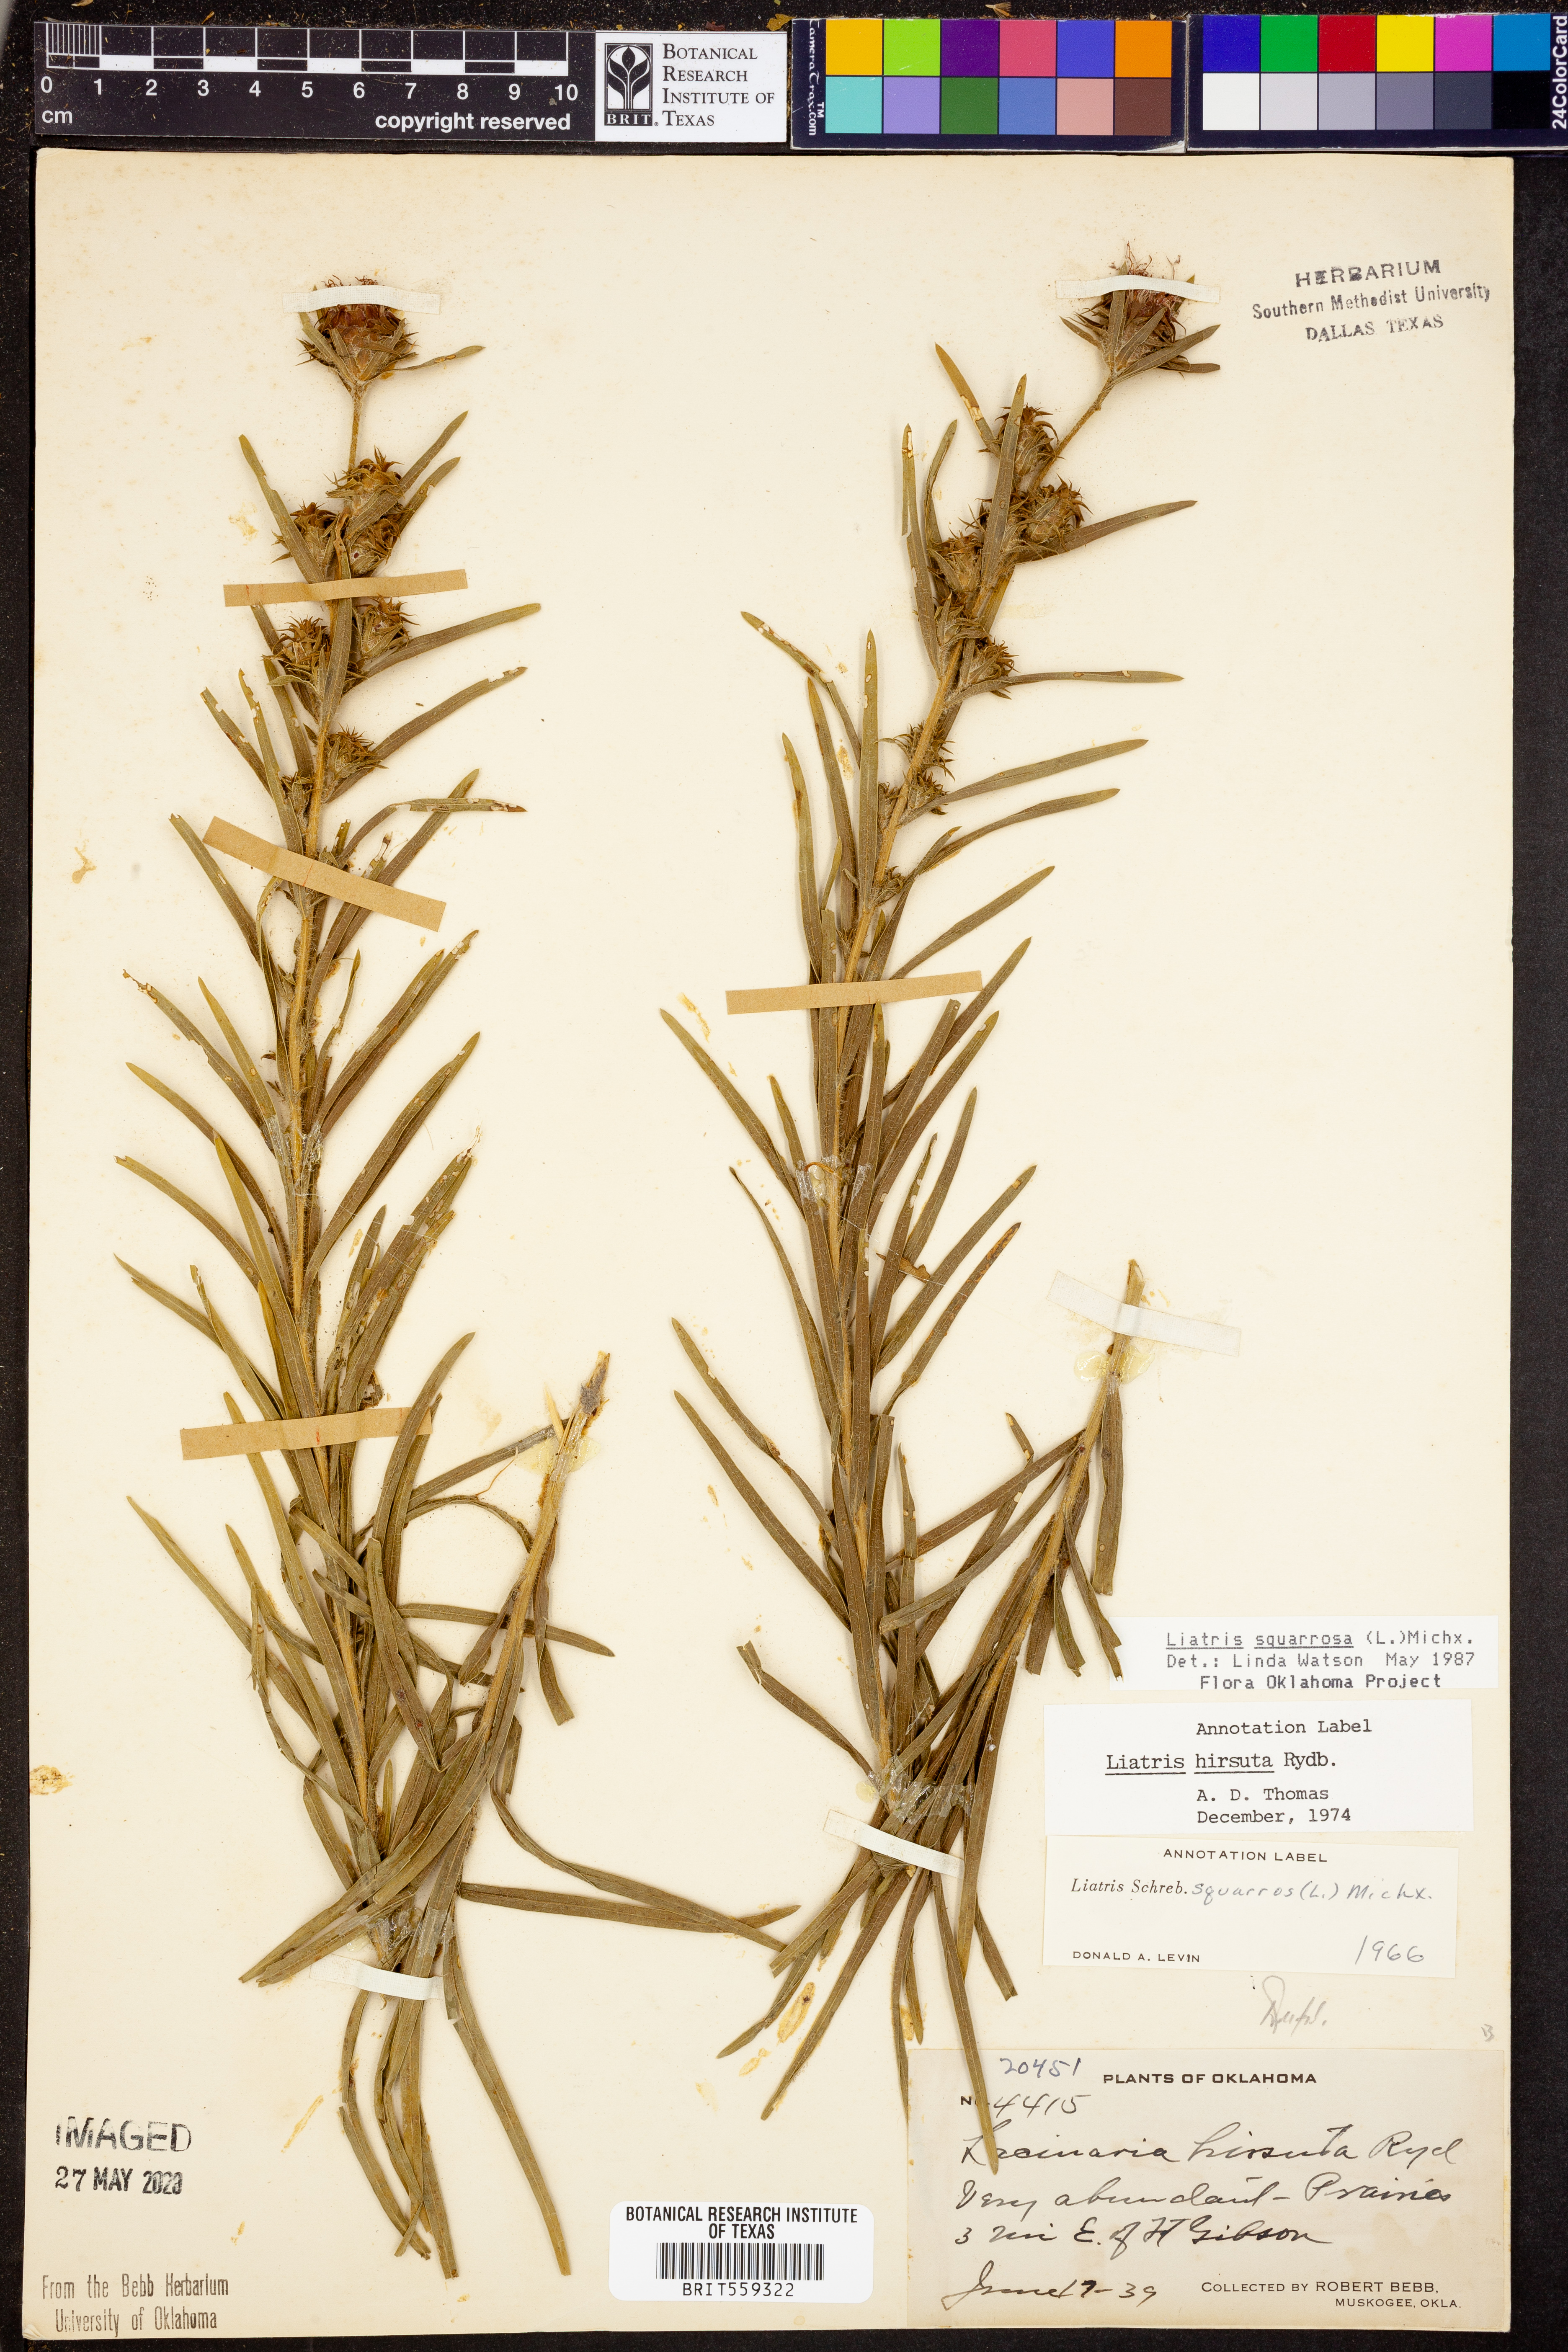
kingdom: Plantae
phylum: Tracheophyta
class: Magnoliopsida
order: Asterales
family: Asteraceae
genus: Liatris
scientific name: Liatris squarrosa
